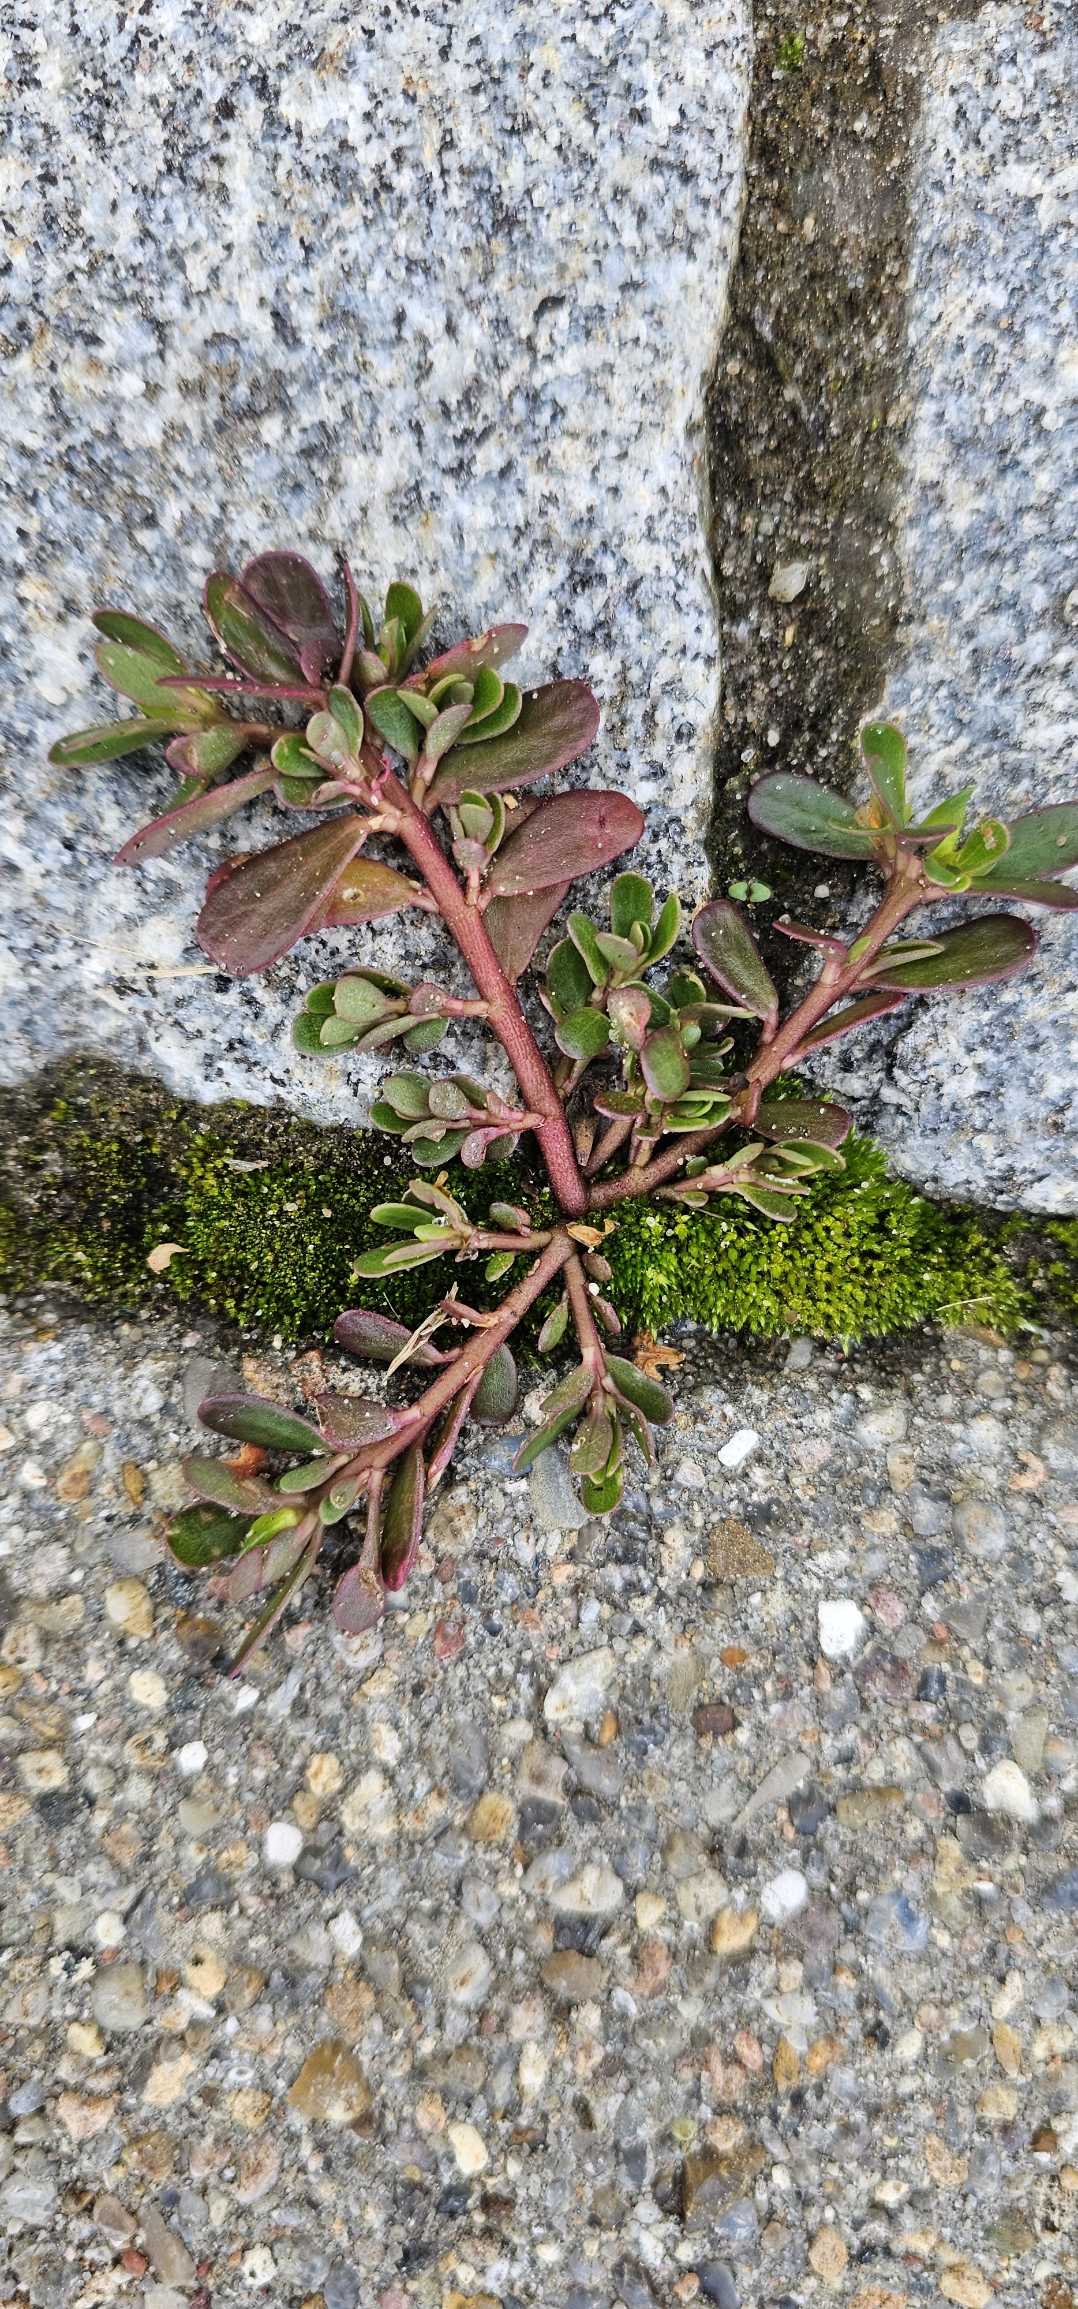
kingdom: Plantae
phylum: Tracheophyta
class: Magnoliopsida
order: Caryophyllales
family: Portulacaceae
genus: Portulaca
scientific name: Portulaca oleracea
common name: Portulak
